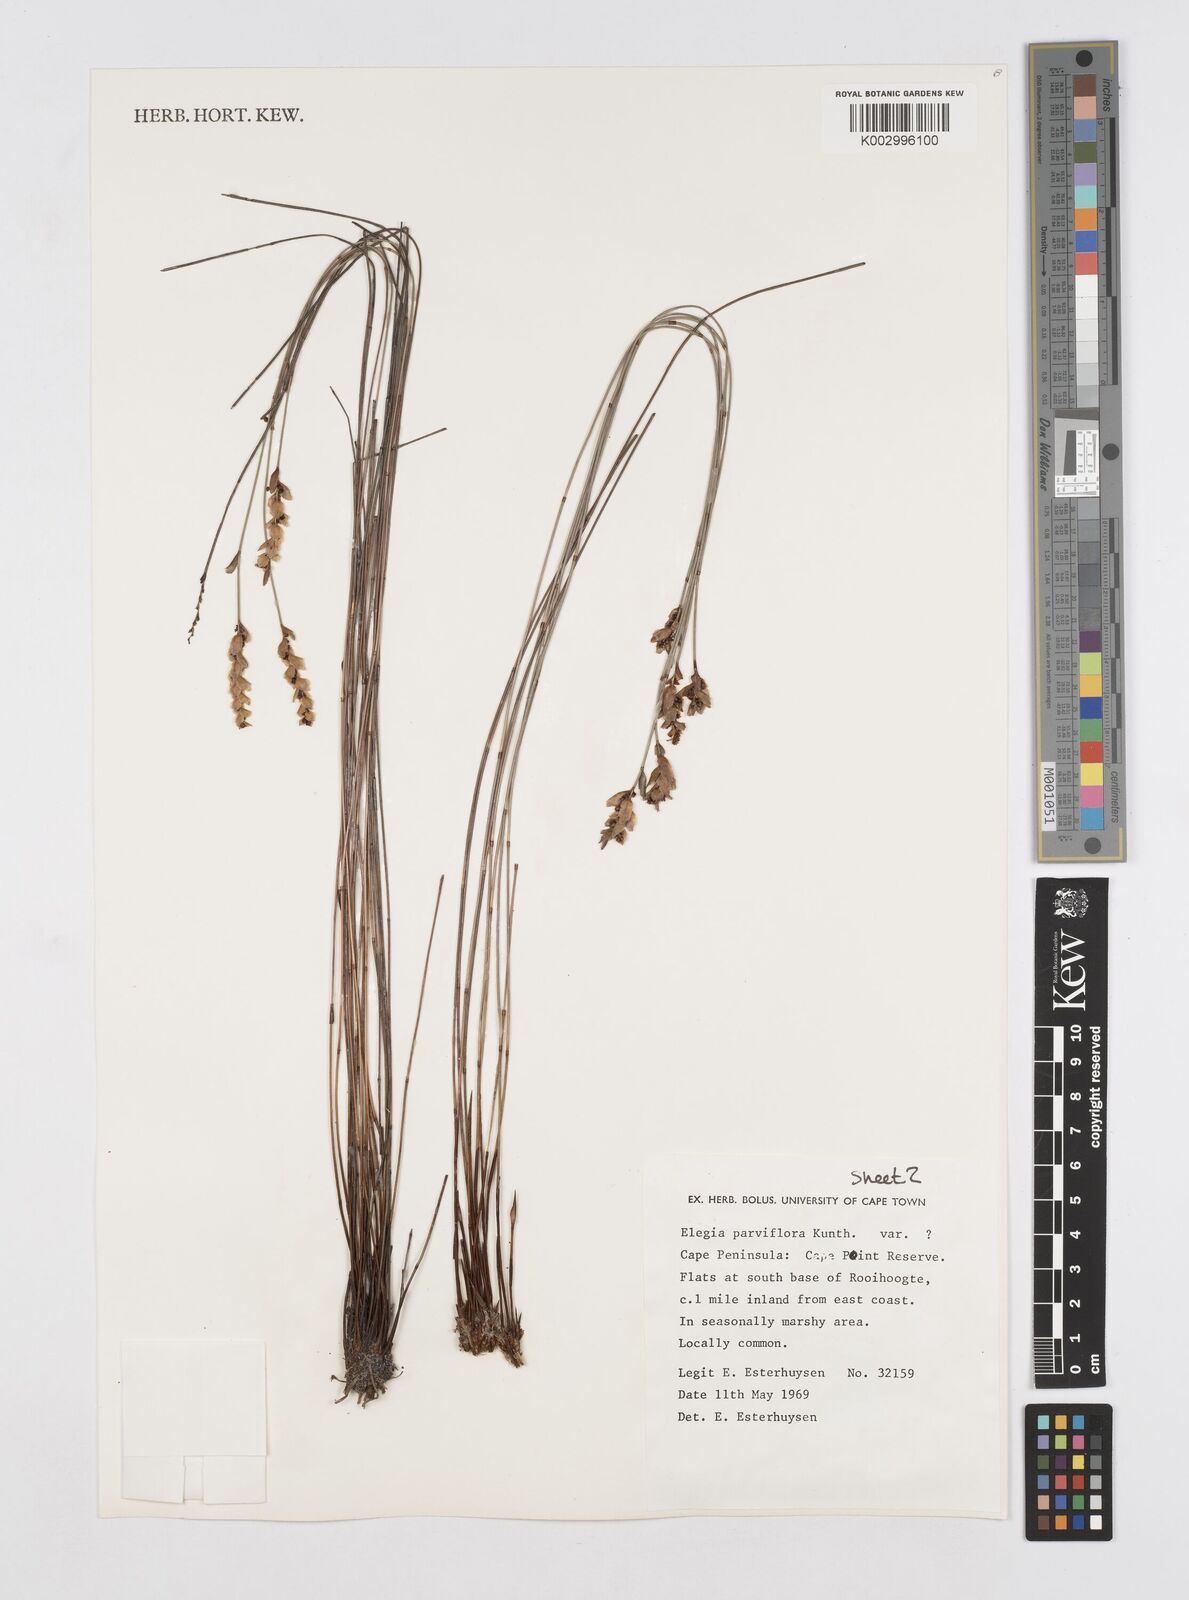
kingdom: Plantae
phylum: Tracheophyta
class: Liliopsida
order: Poales
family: Restionaceae
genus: Cannomois
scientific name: Cannomois parviflora
